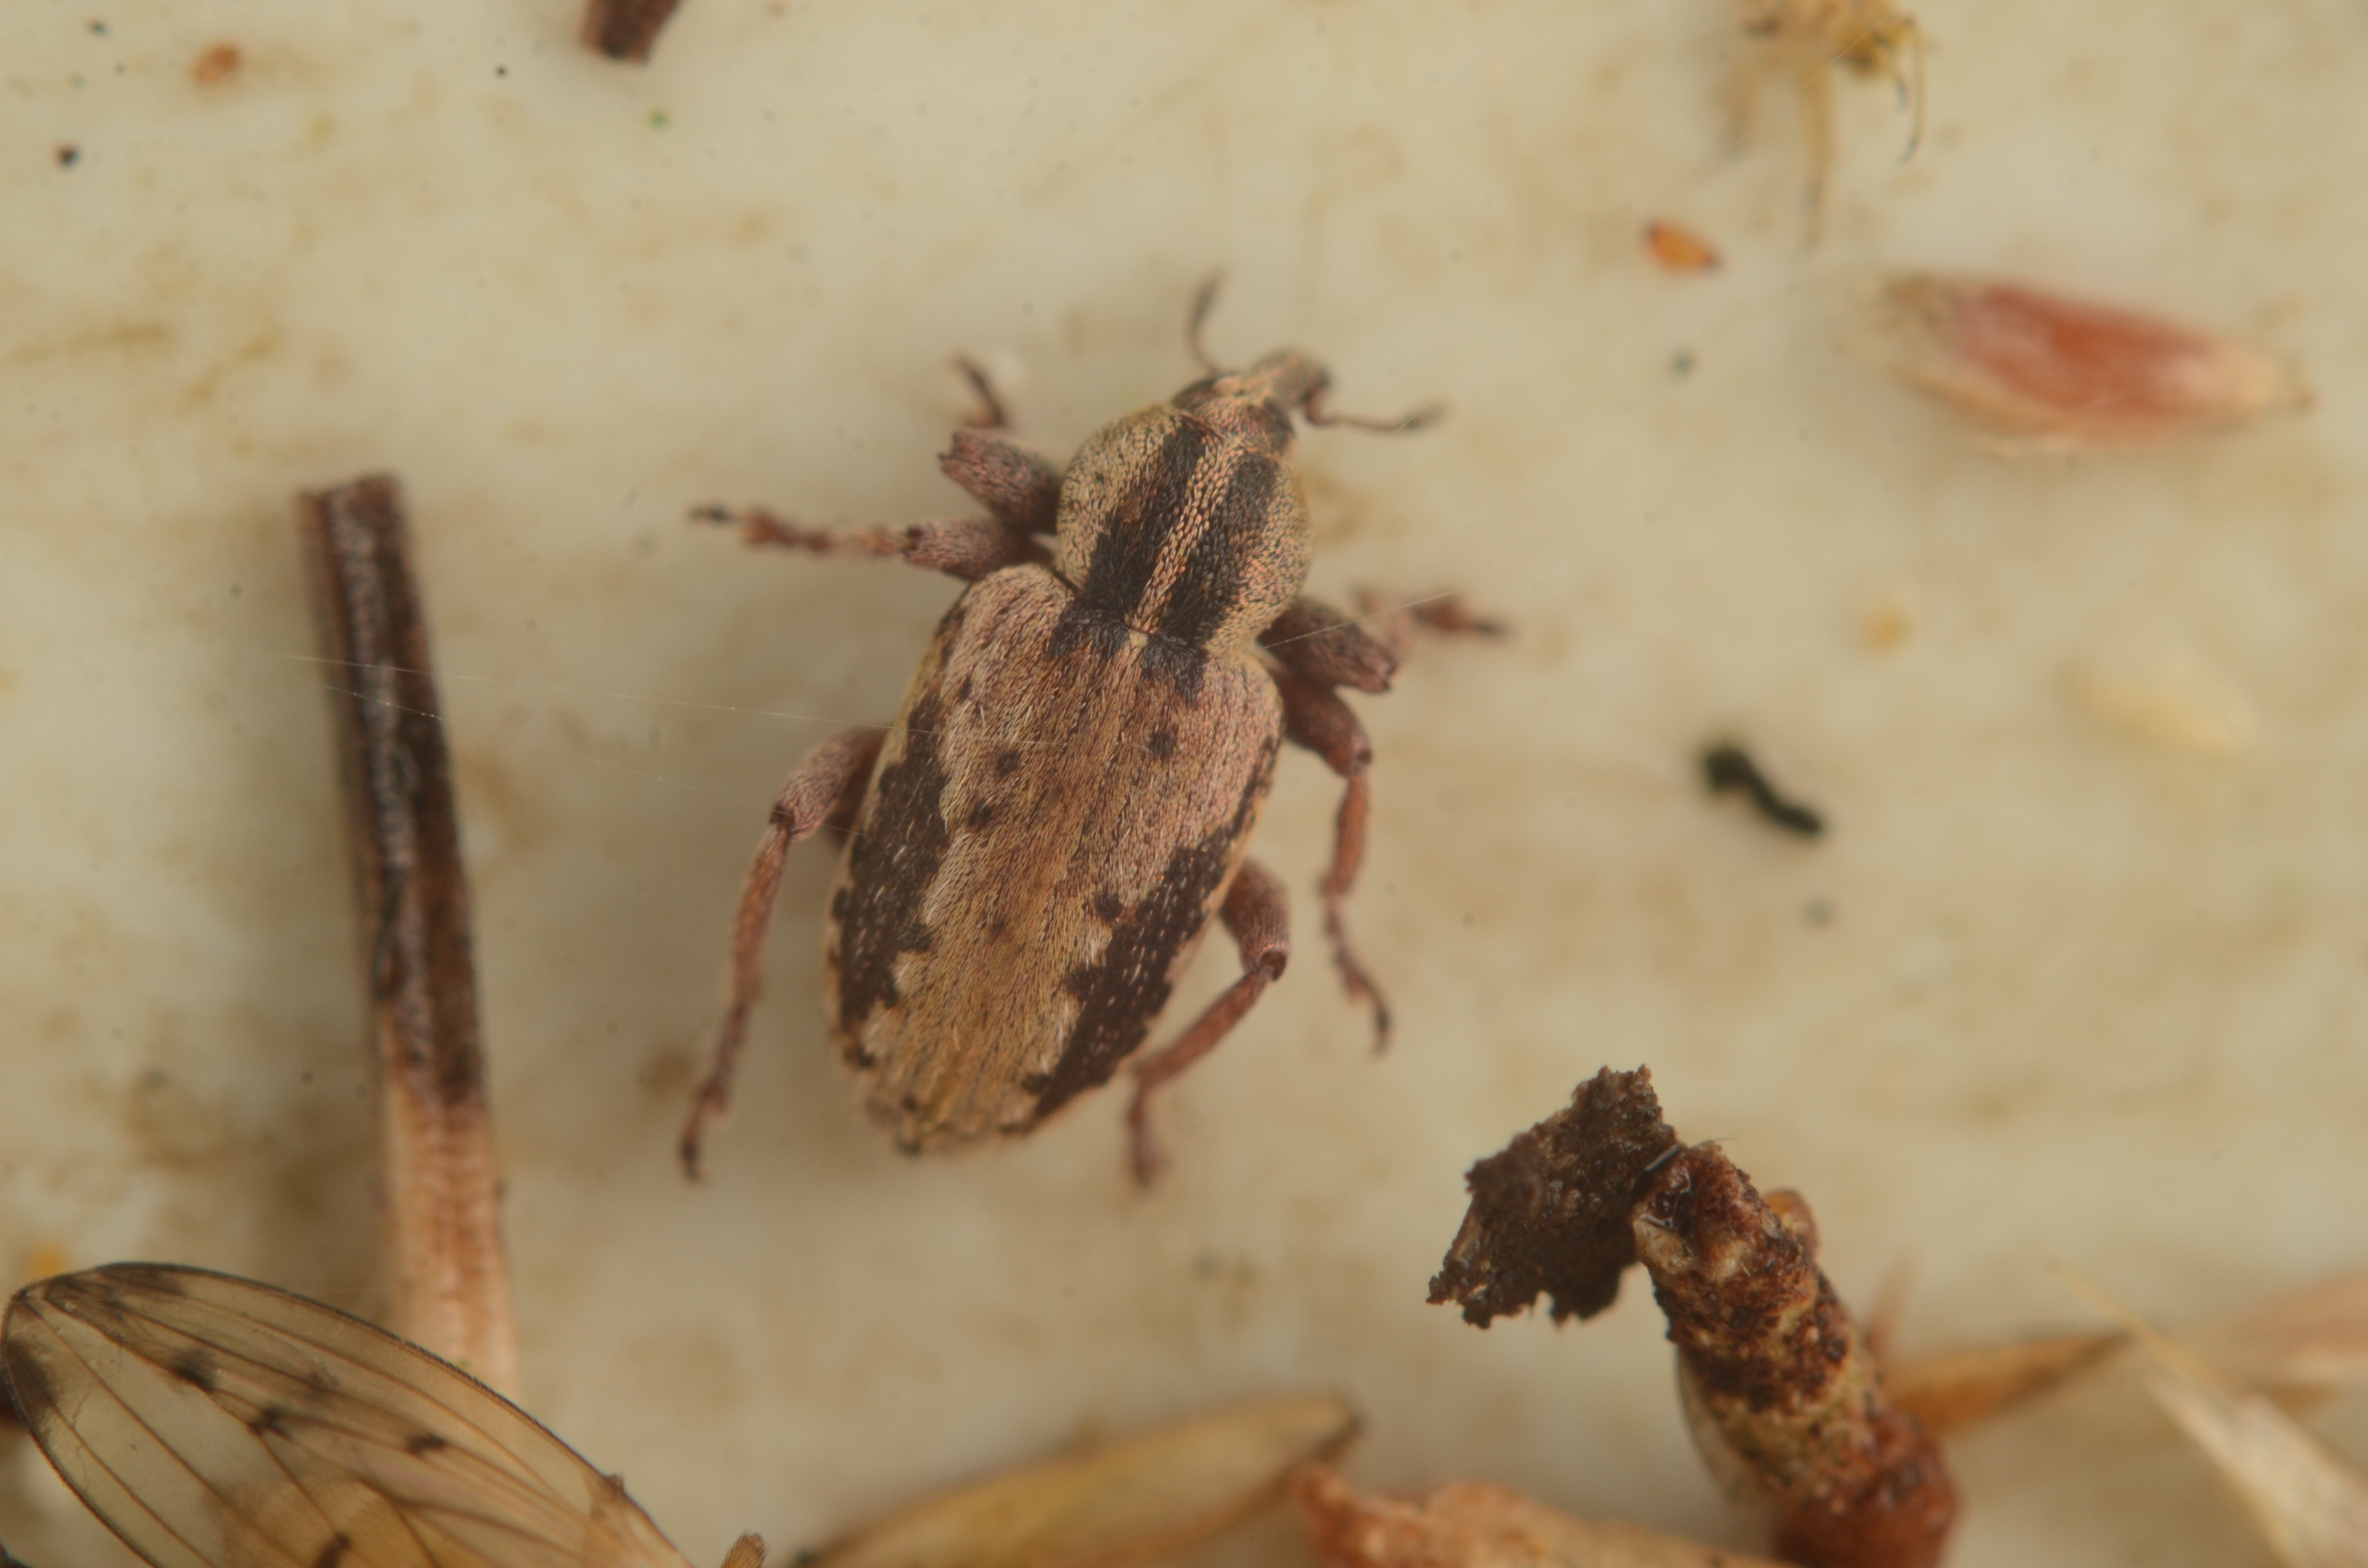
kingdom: Animalia
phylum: Arthropoda
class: Insecta
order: Coleoptera
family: Curculionidae
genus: Hypera
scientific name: Hypera plantaginis
